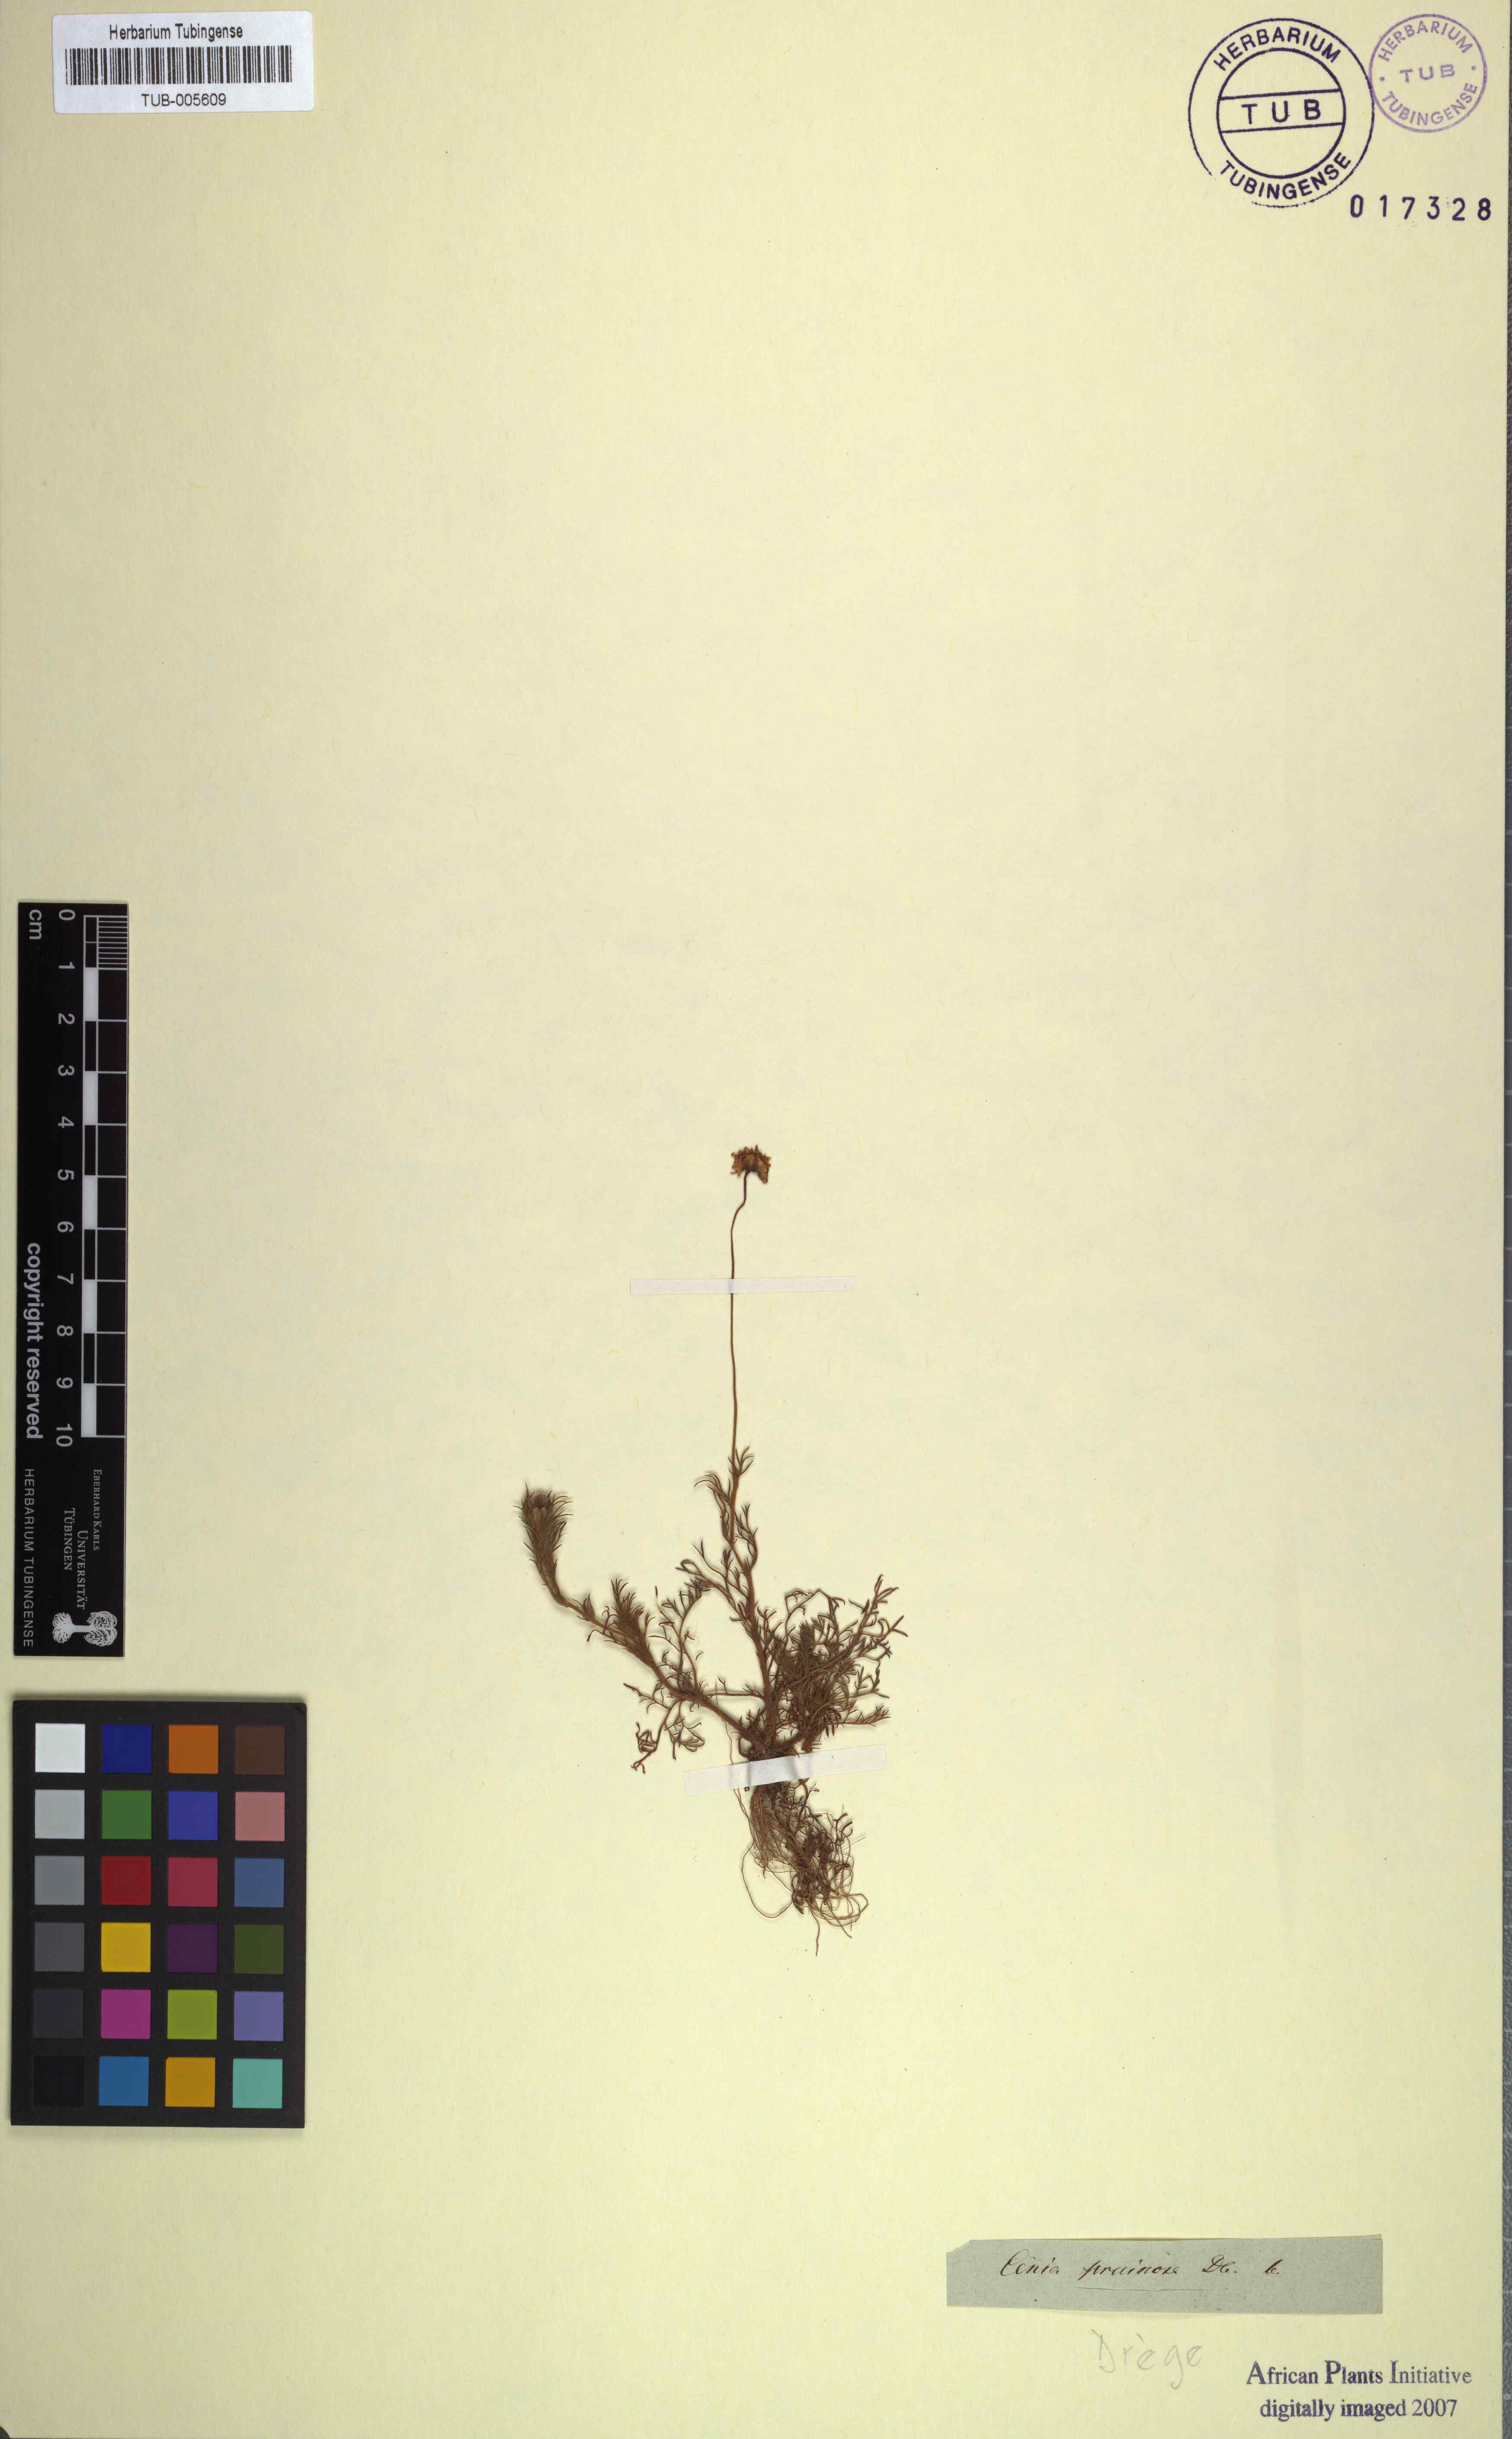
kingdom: Plantae
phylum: Tracheophyta
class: Magnoliopsida
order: Asterales
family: Asteraceae
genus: Cotula
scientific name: Cotula turbinata
